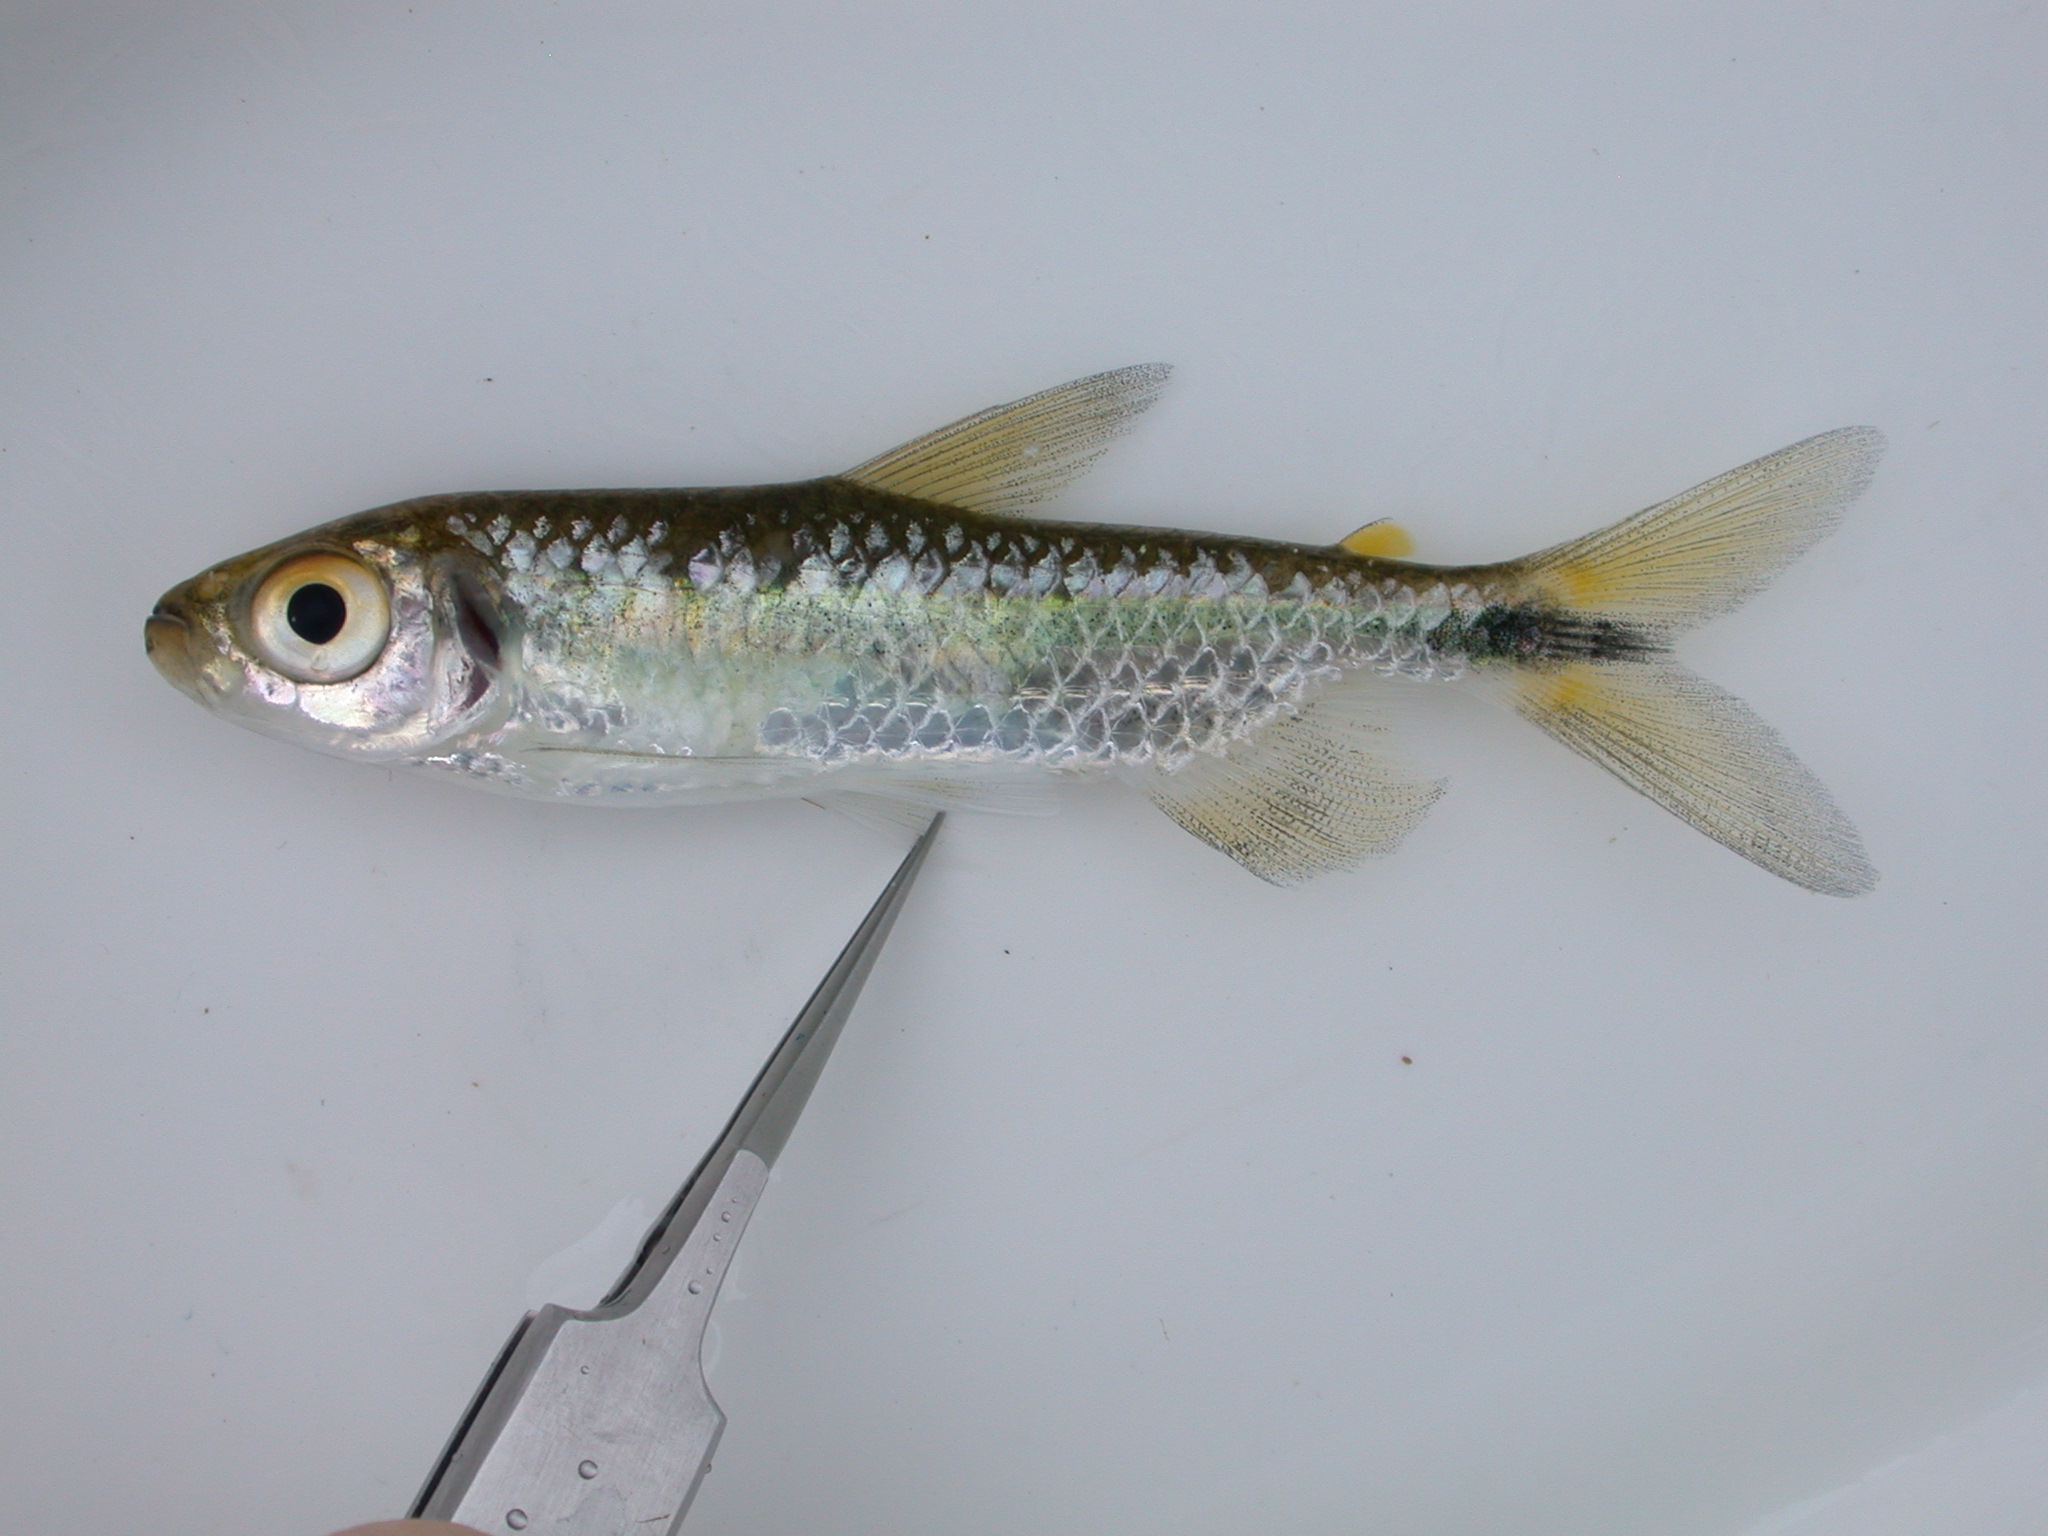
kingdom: Animalia
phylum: Chordata
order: Characiformes
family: Alestidae
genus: Brycinus
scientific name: Brycinus lateralis
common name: Striped robber
